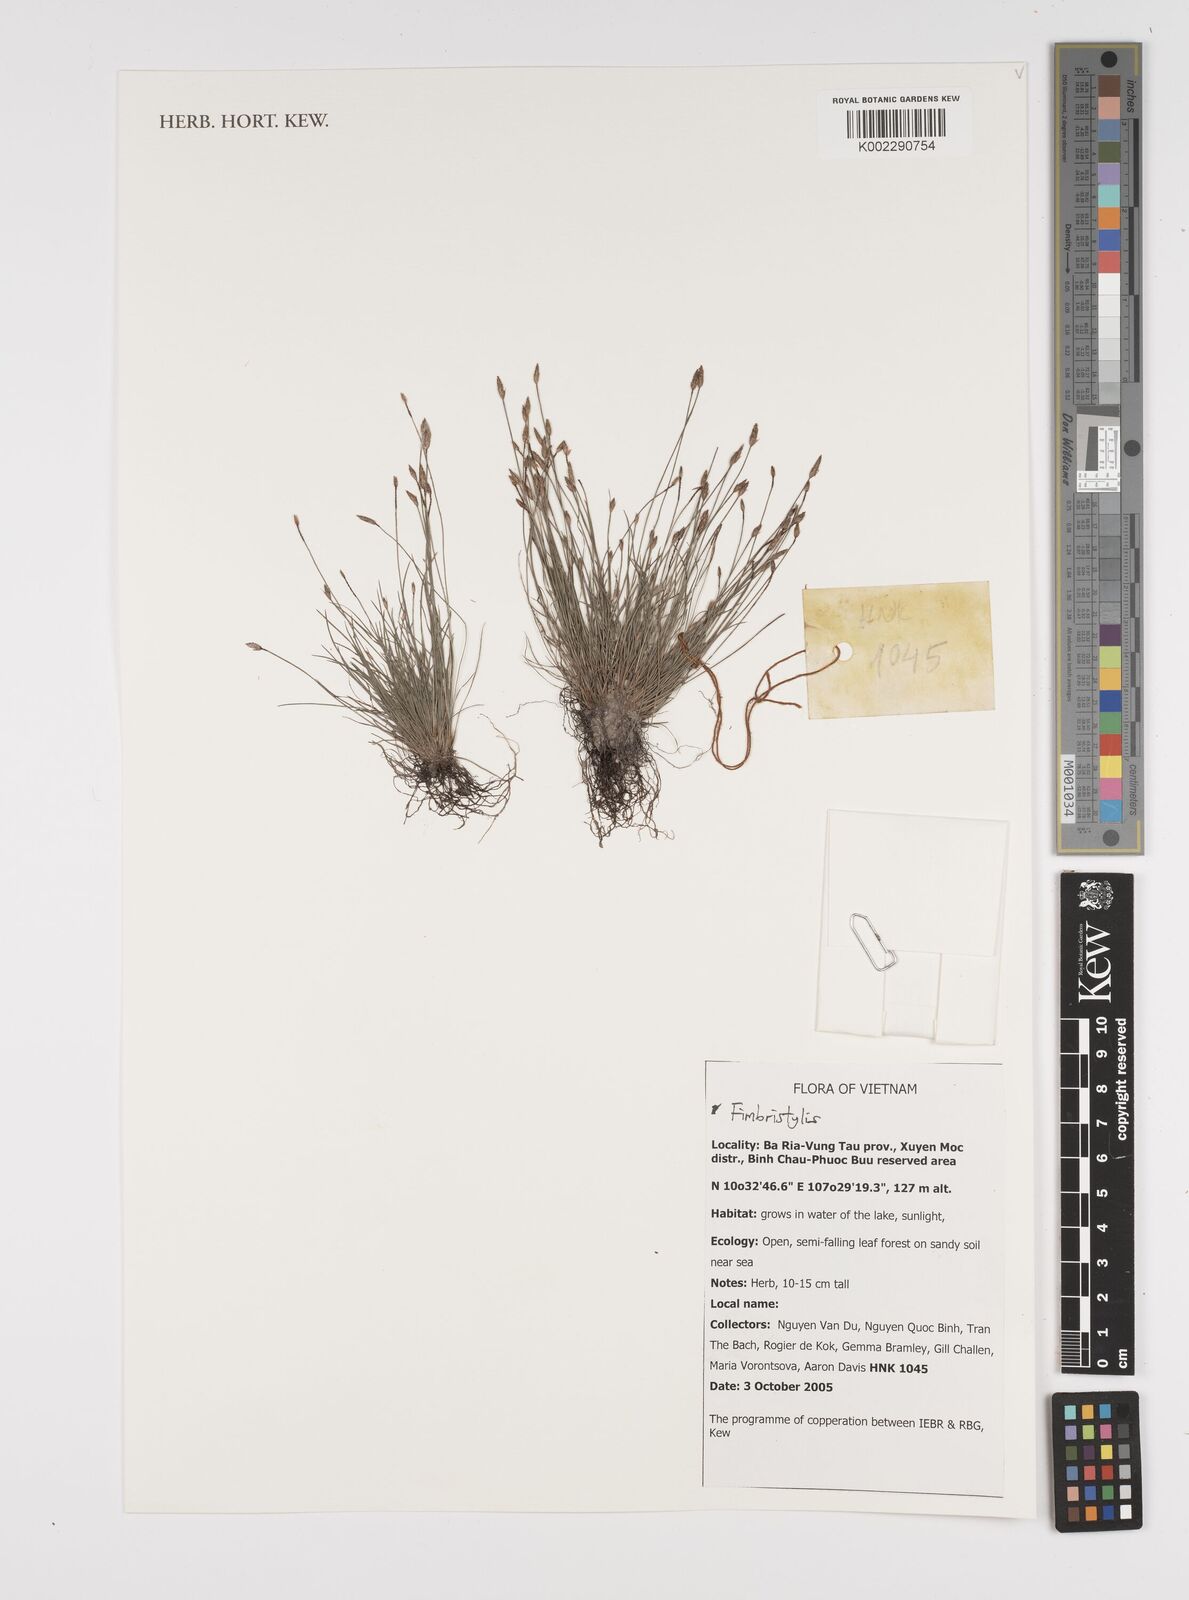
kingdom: Plantae
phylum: Tracheophyta
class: Liliopsida
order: Poales
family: Cyperaceae
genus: Fimbristylis
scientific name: Fimbristylis
